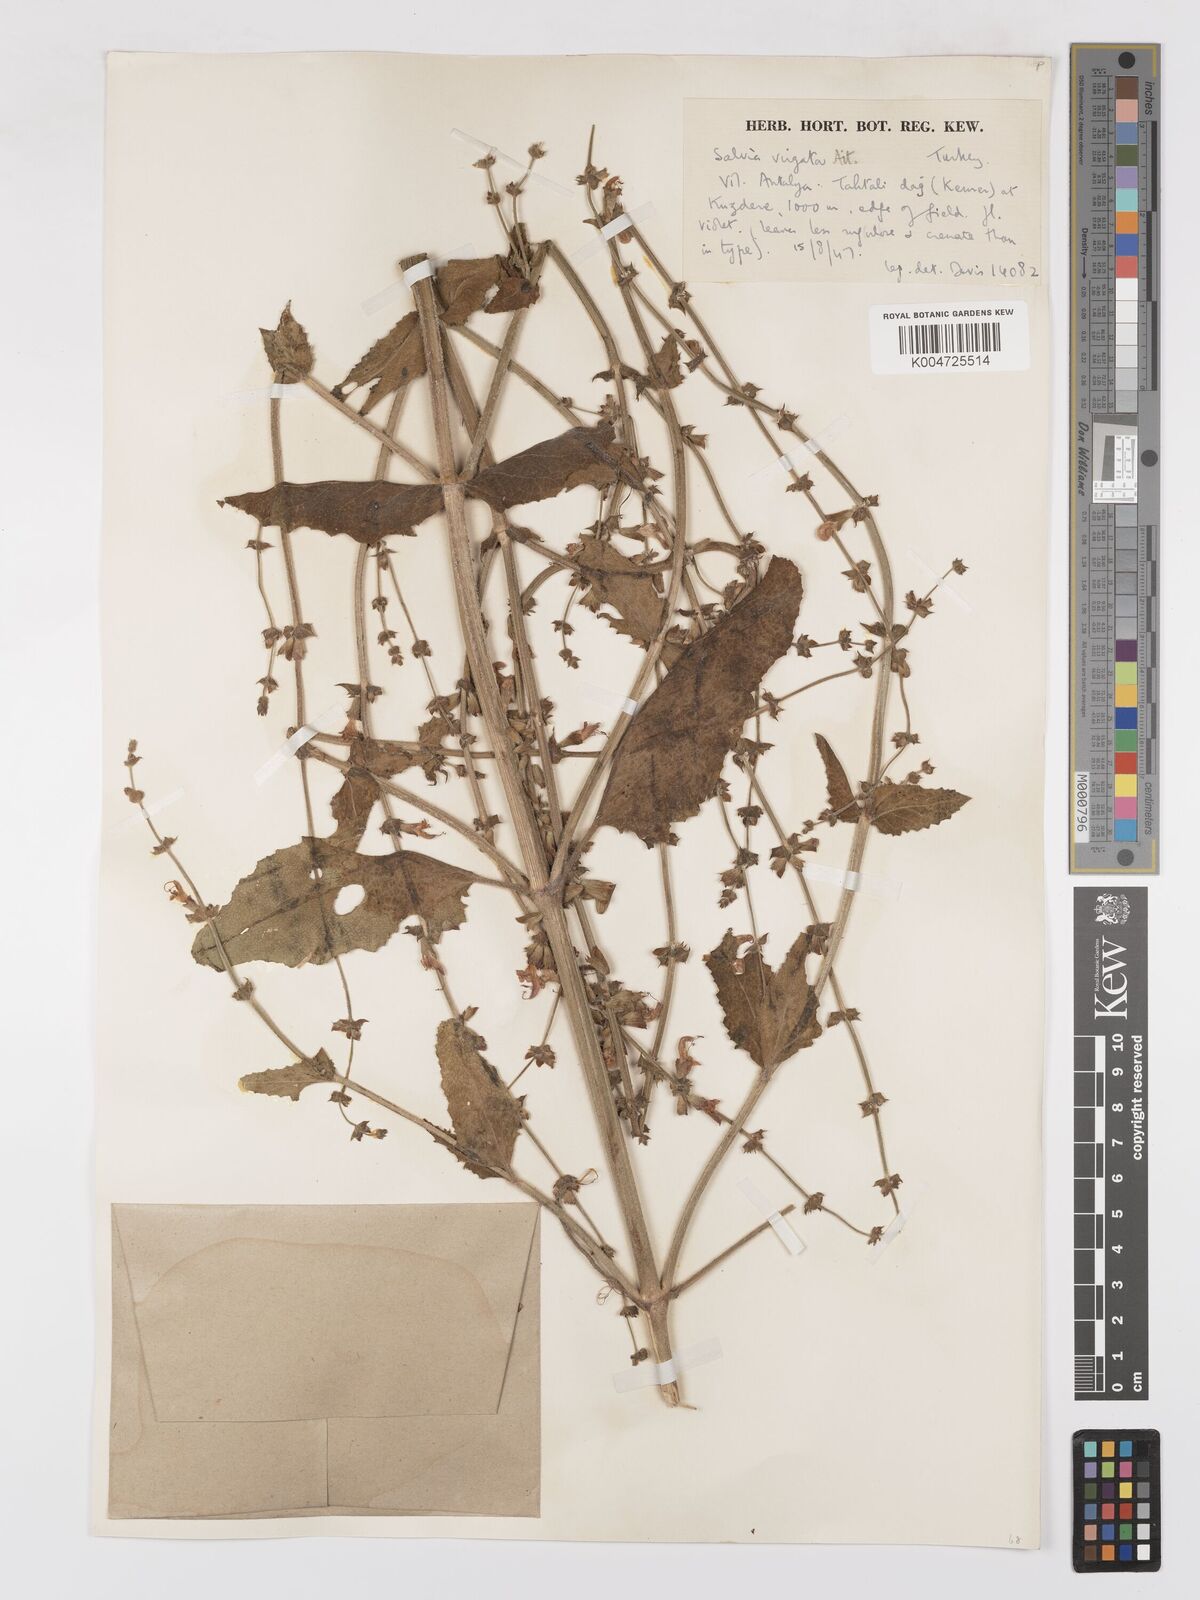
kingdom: Plantae
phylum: Tracheophyta
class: Magnoliopsida
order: Lamiales
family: Lamiaceae
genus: Salvia
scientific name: Salvia
